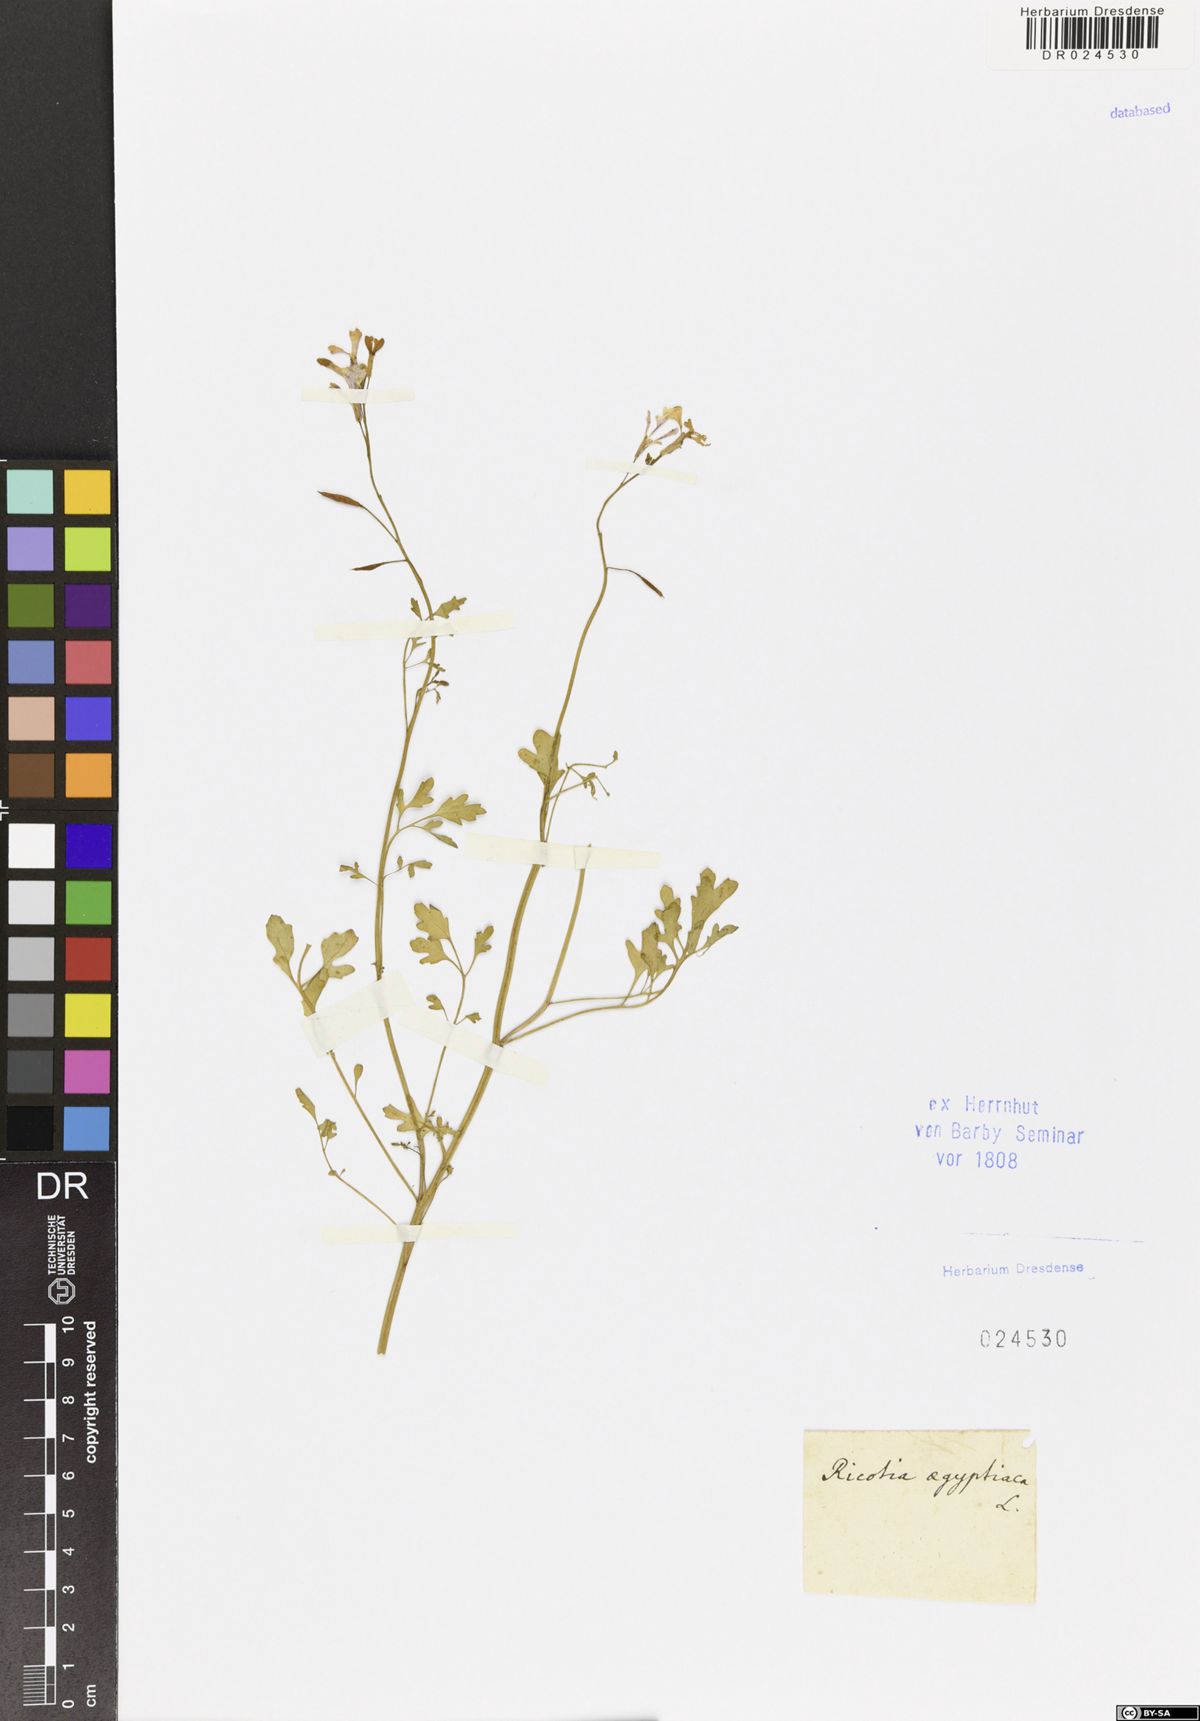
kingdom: Plantae
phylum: Tracheophyta
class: Magnoliopsida
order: Brassicales
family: Brassicaceae
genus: Ricotia
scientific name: Ricotia lunaria
